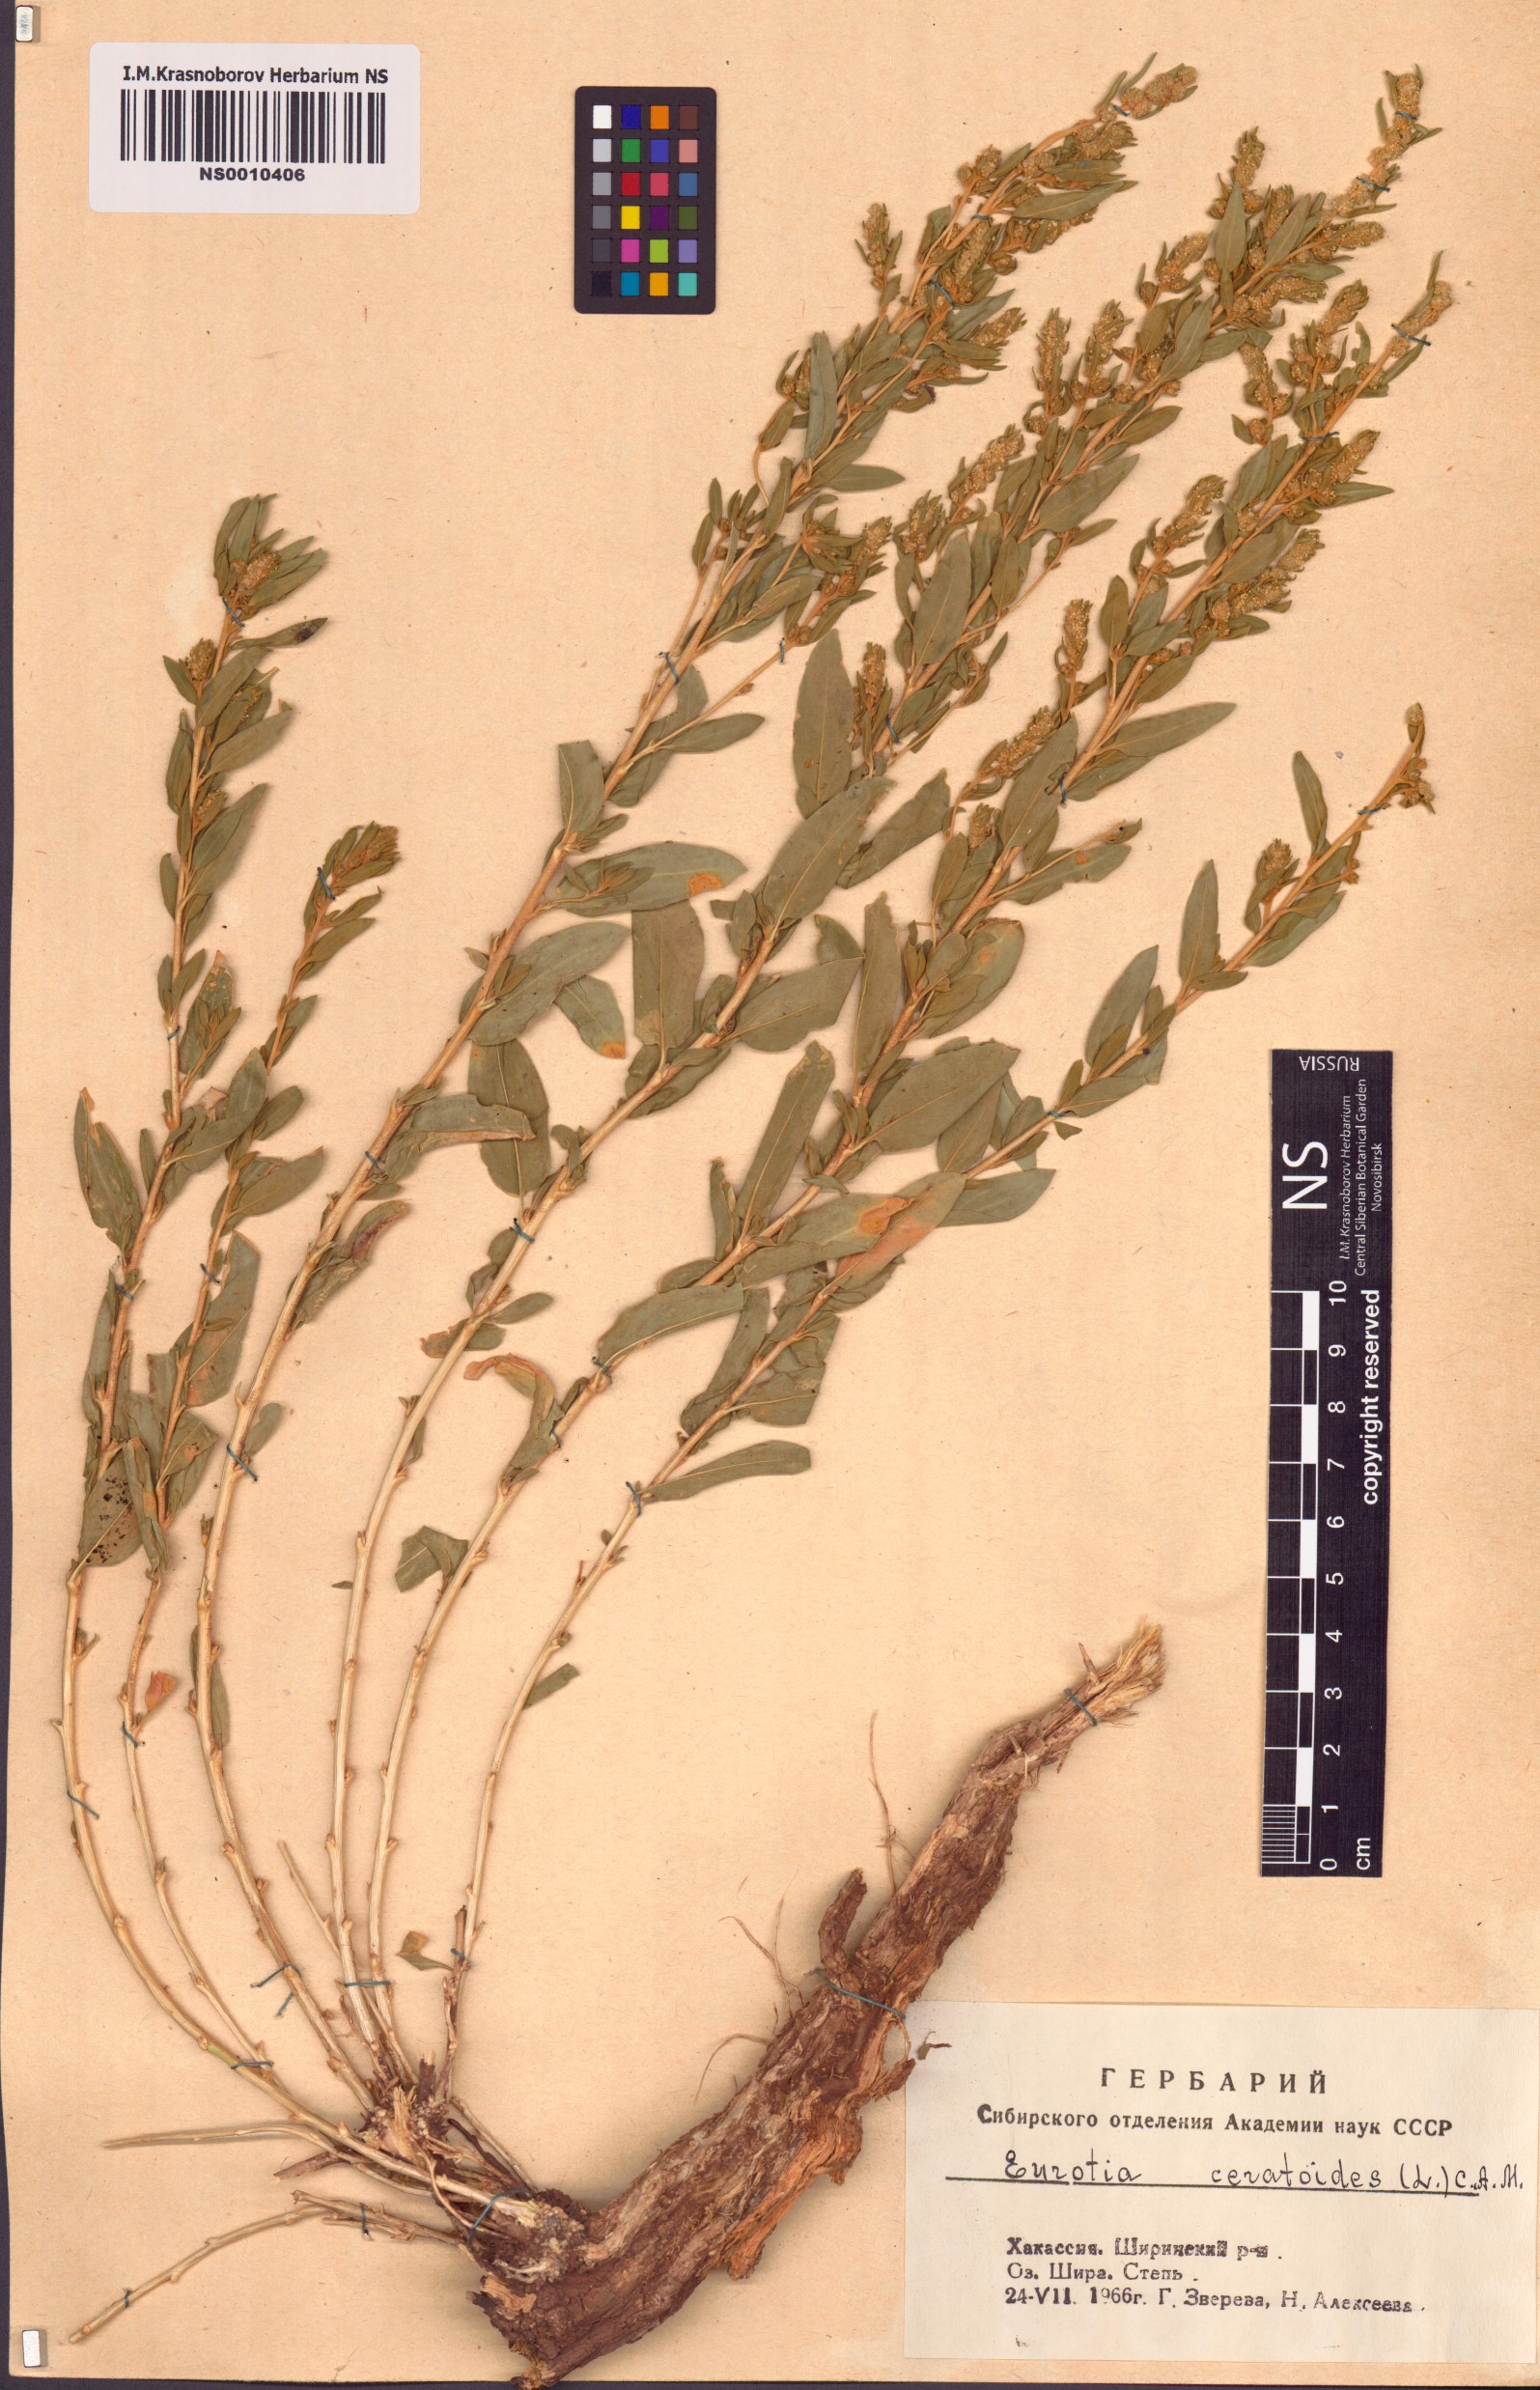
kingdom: Plantae
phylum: Tracheophyta
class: Magnoliopsida
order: Caryophyllales
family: Amaranthaceae
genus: Krascheninnikovia
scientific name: Krascheninnikovia ceratoides
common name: Pamirian winterfat
